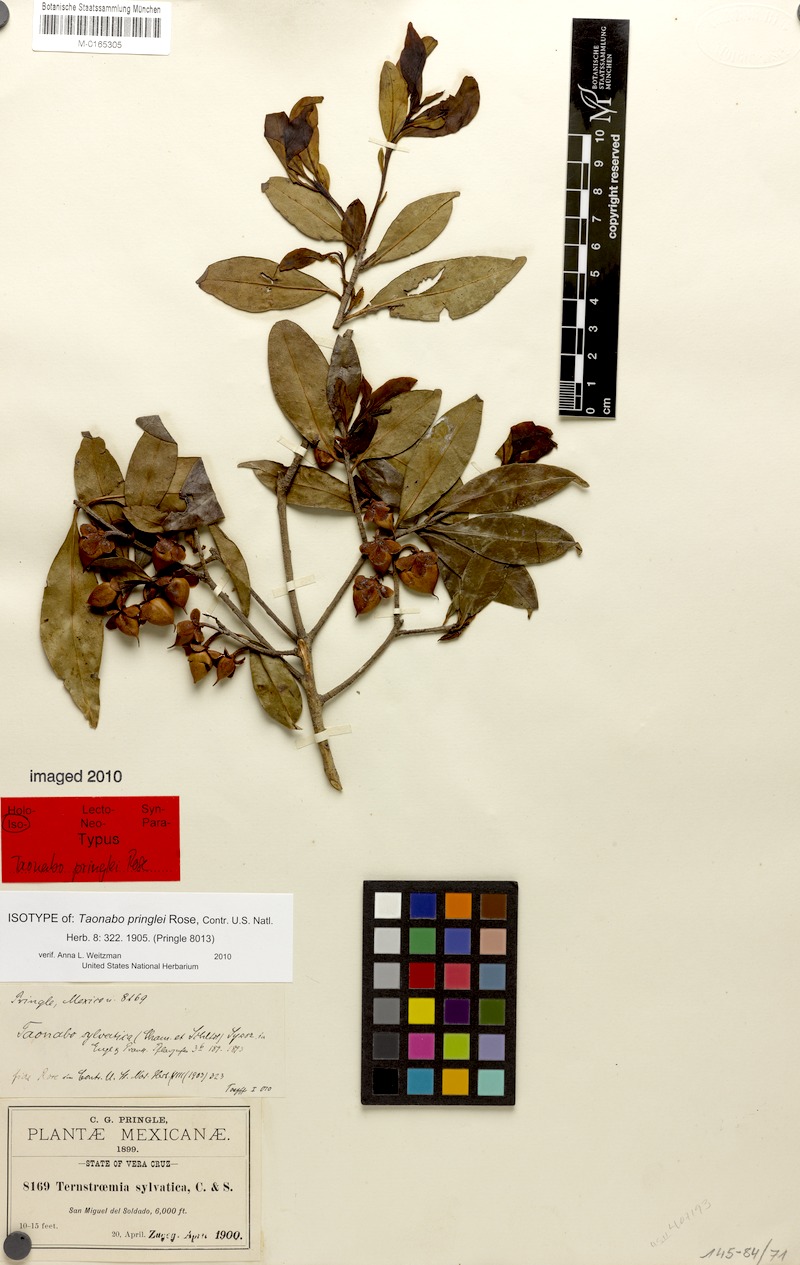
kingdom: Plantae
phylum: Tracheophyta
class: Magnoliopsida
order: Ericales
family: Pentaphylacaceae
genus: Ternstroemia
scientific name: Ternstroemia lineata
